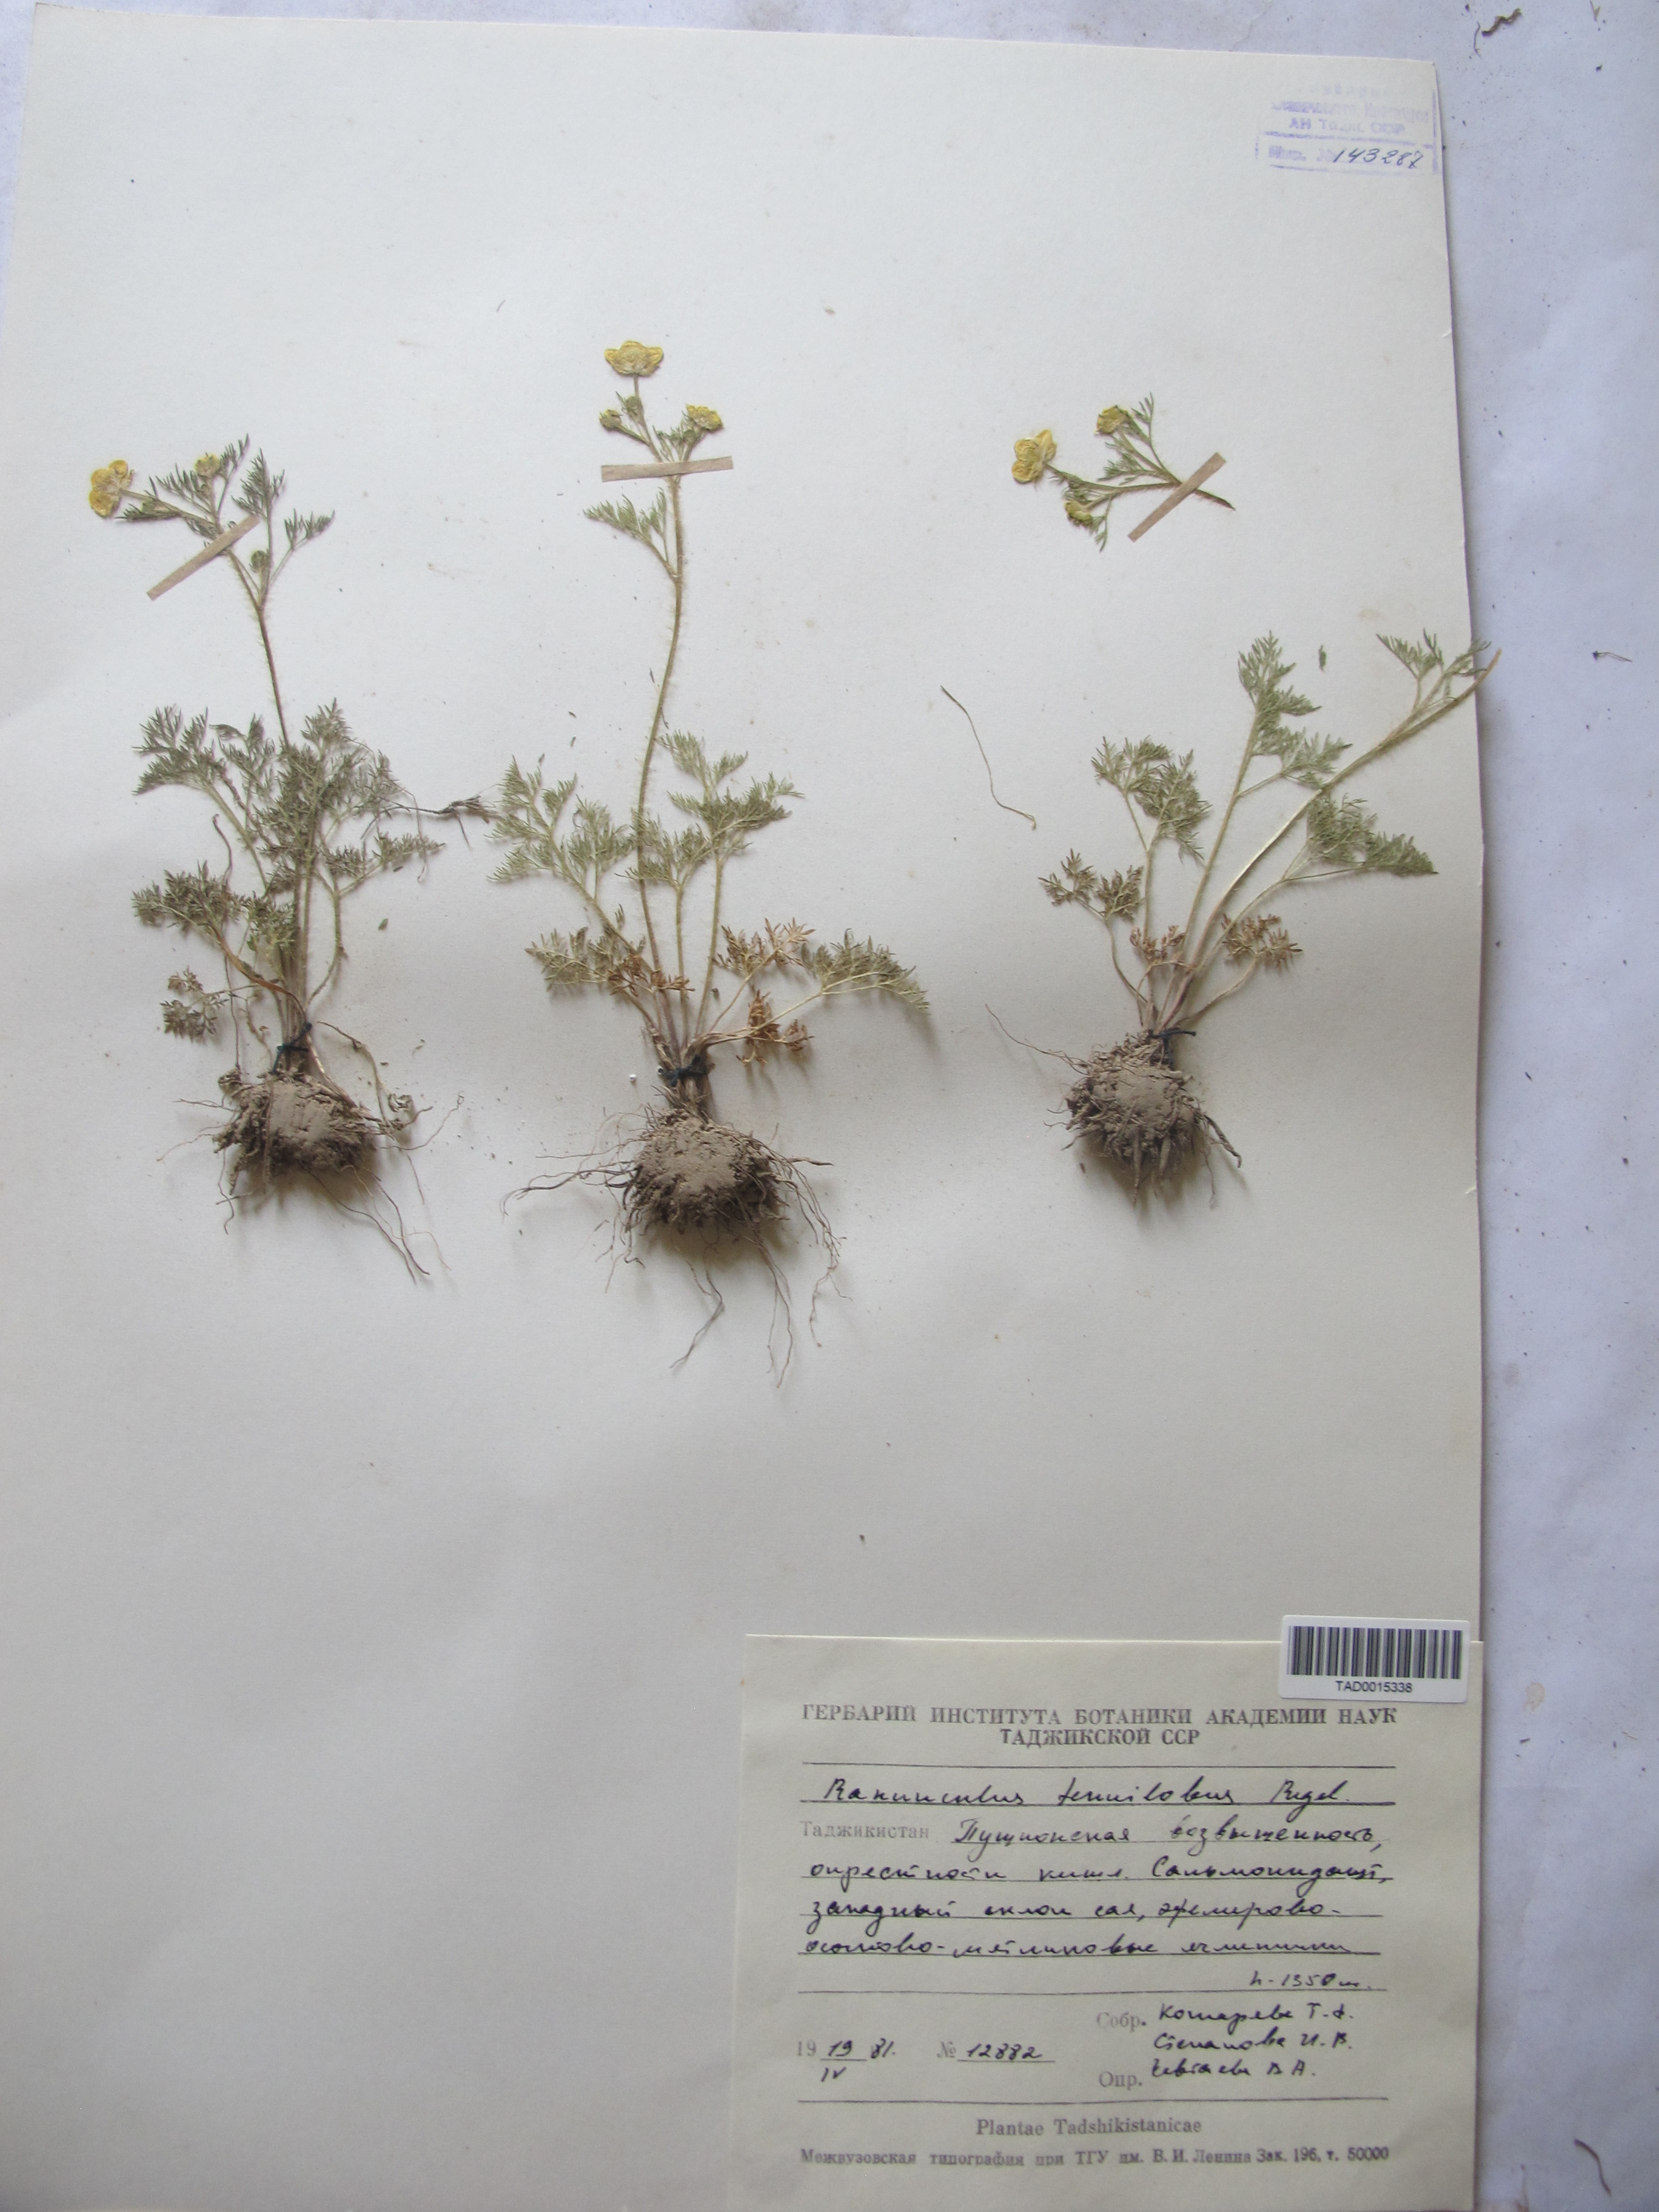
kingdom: Plantae
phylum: Tracheophyta
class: Magnoliopsida
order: Ranunculales
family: Ranunculaceae
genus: Ranunculus
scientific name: Ranunculus tenuilobus
